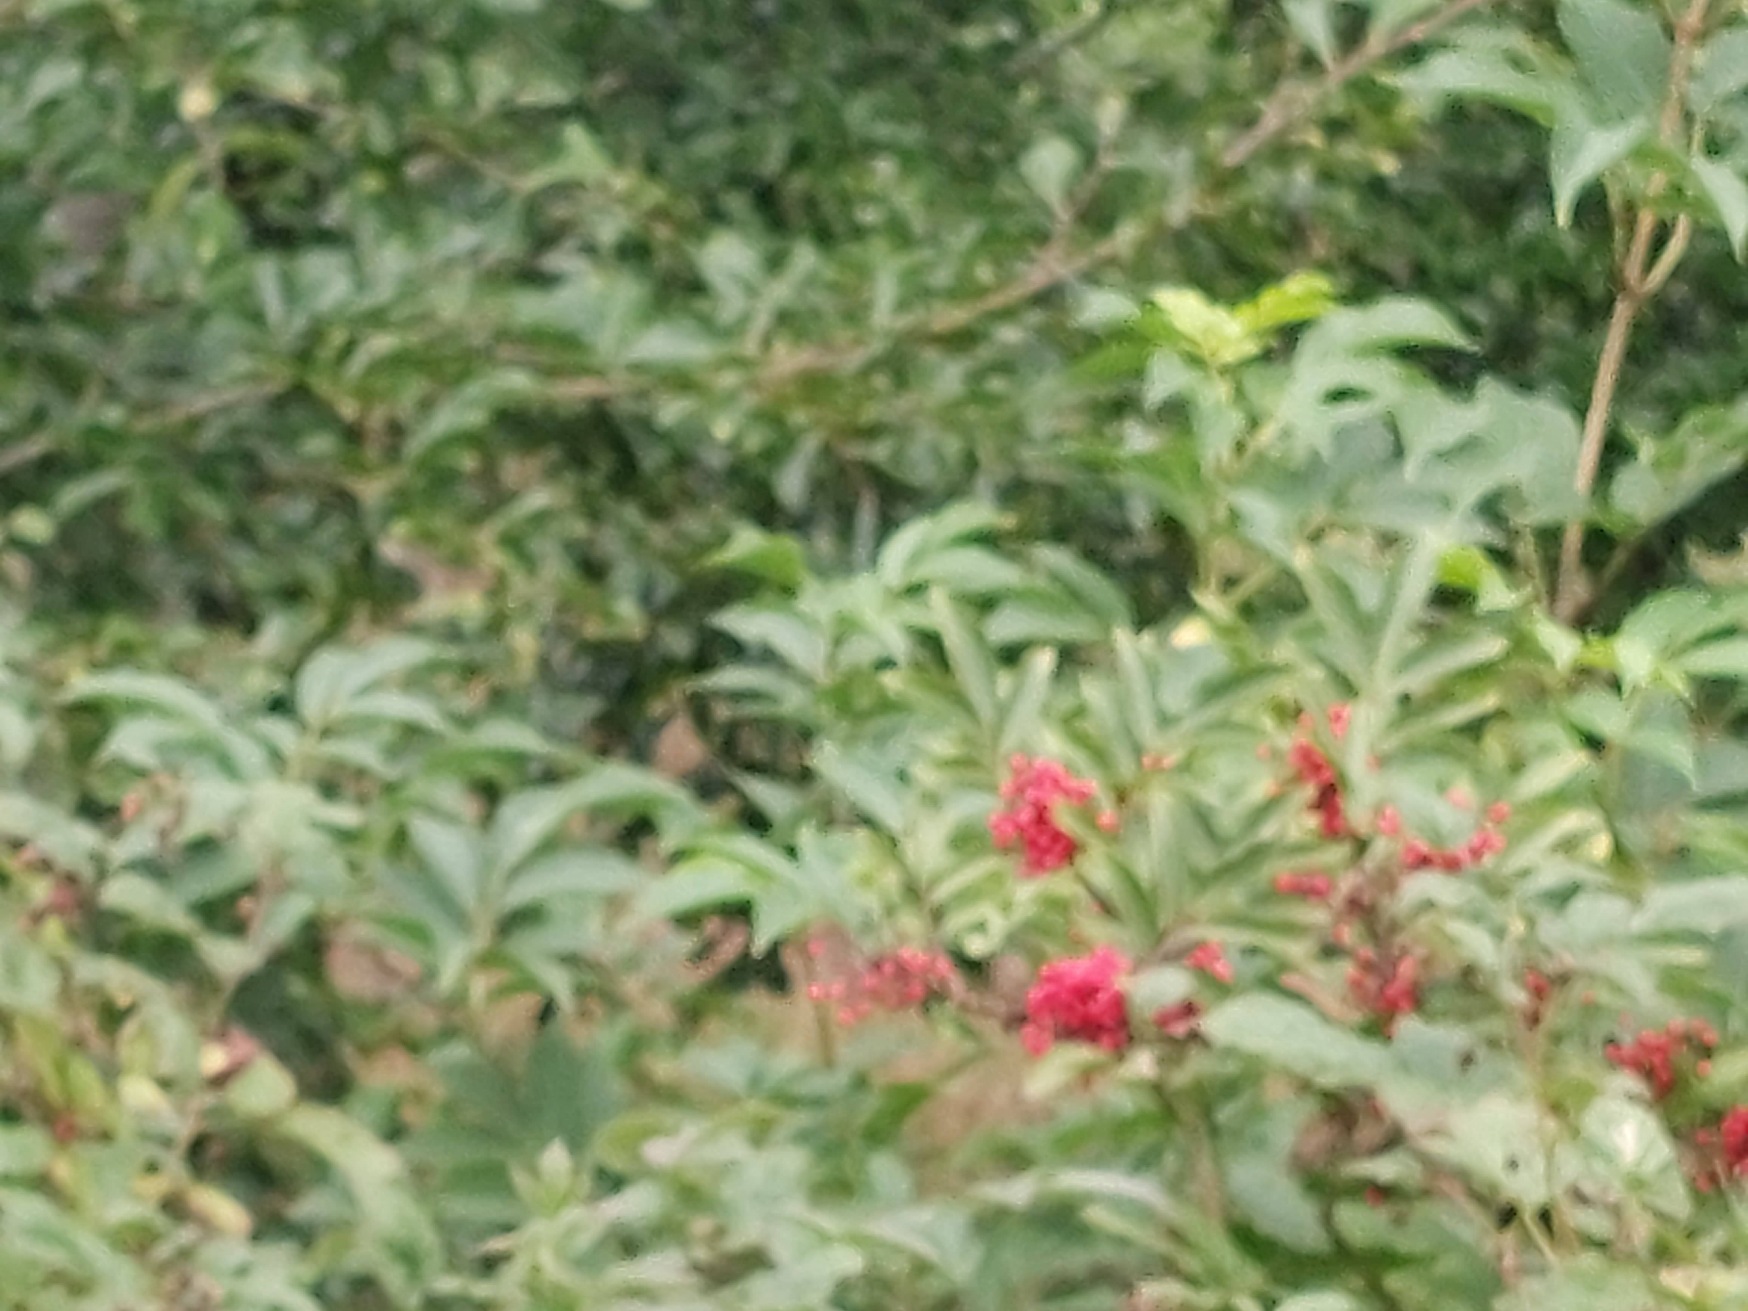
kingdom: Plantae
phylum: Tracheophyta
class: Magnoliopsida
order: Dipsacales
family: Viburnaceae
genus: Sambucus
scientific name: Sambucus racemosa
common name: Drue-hyld
